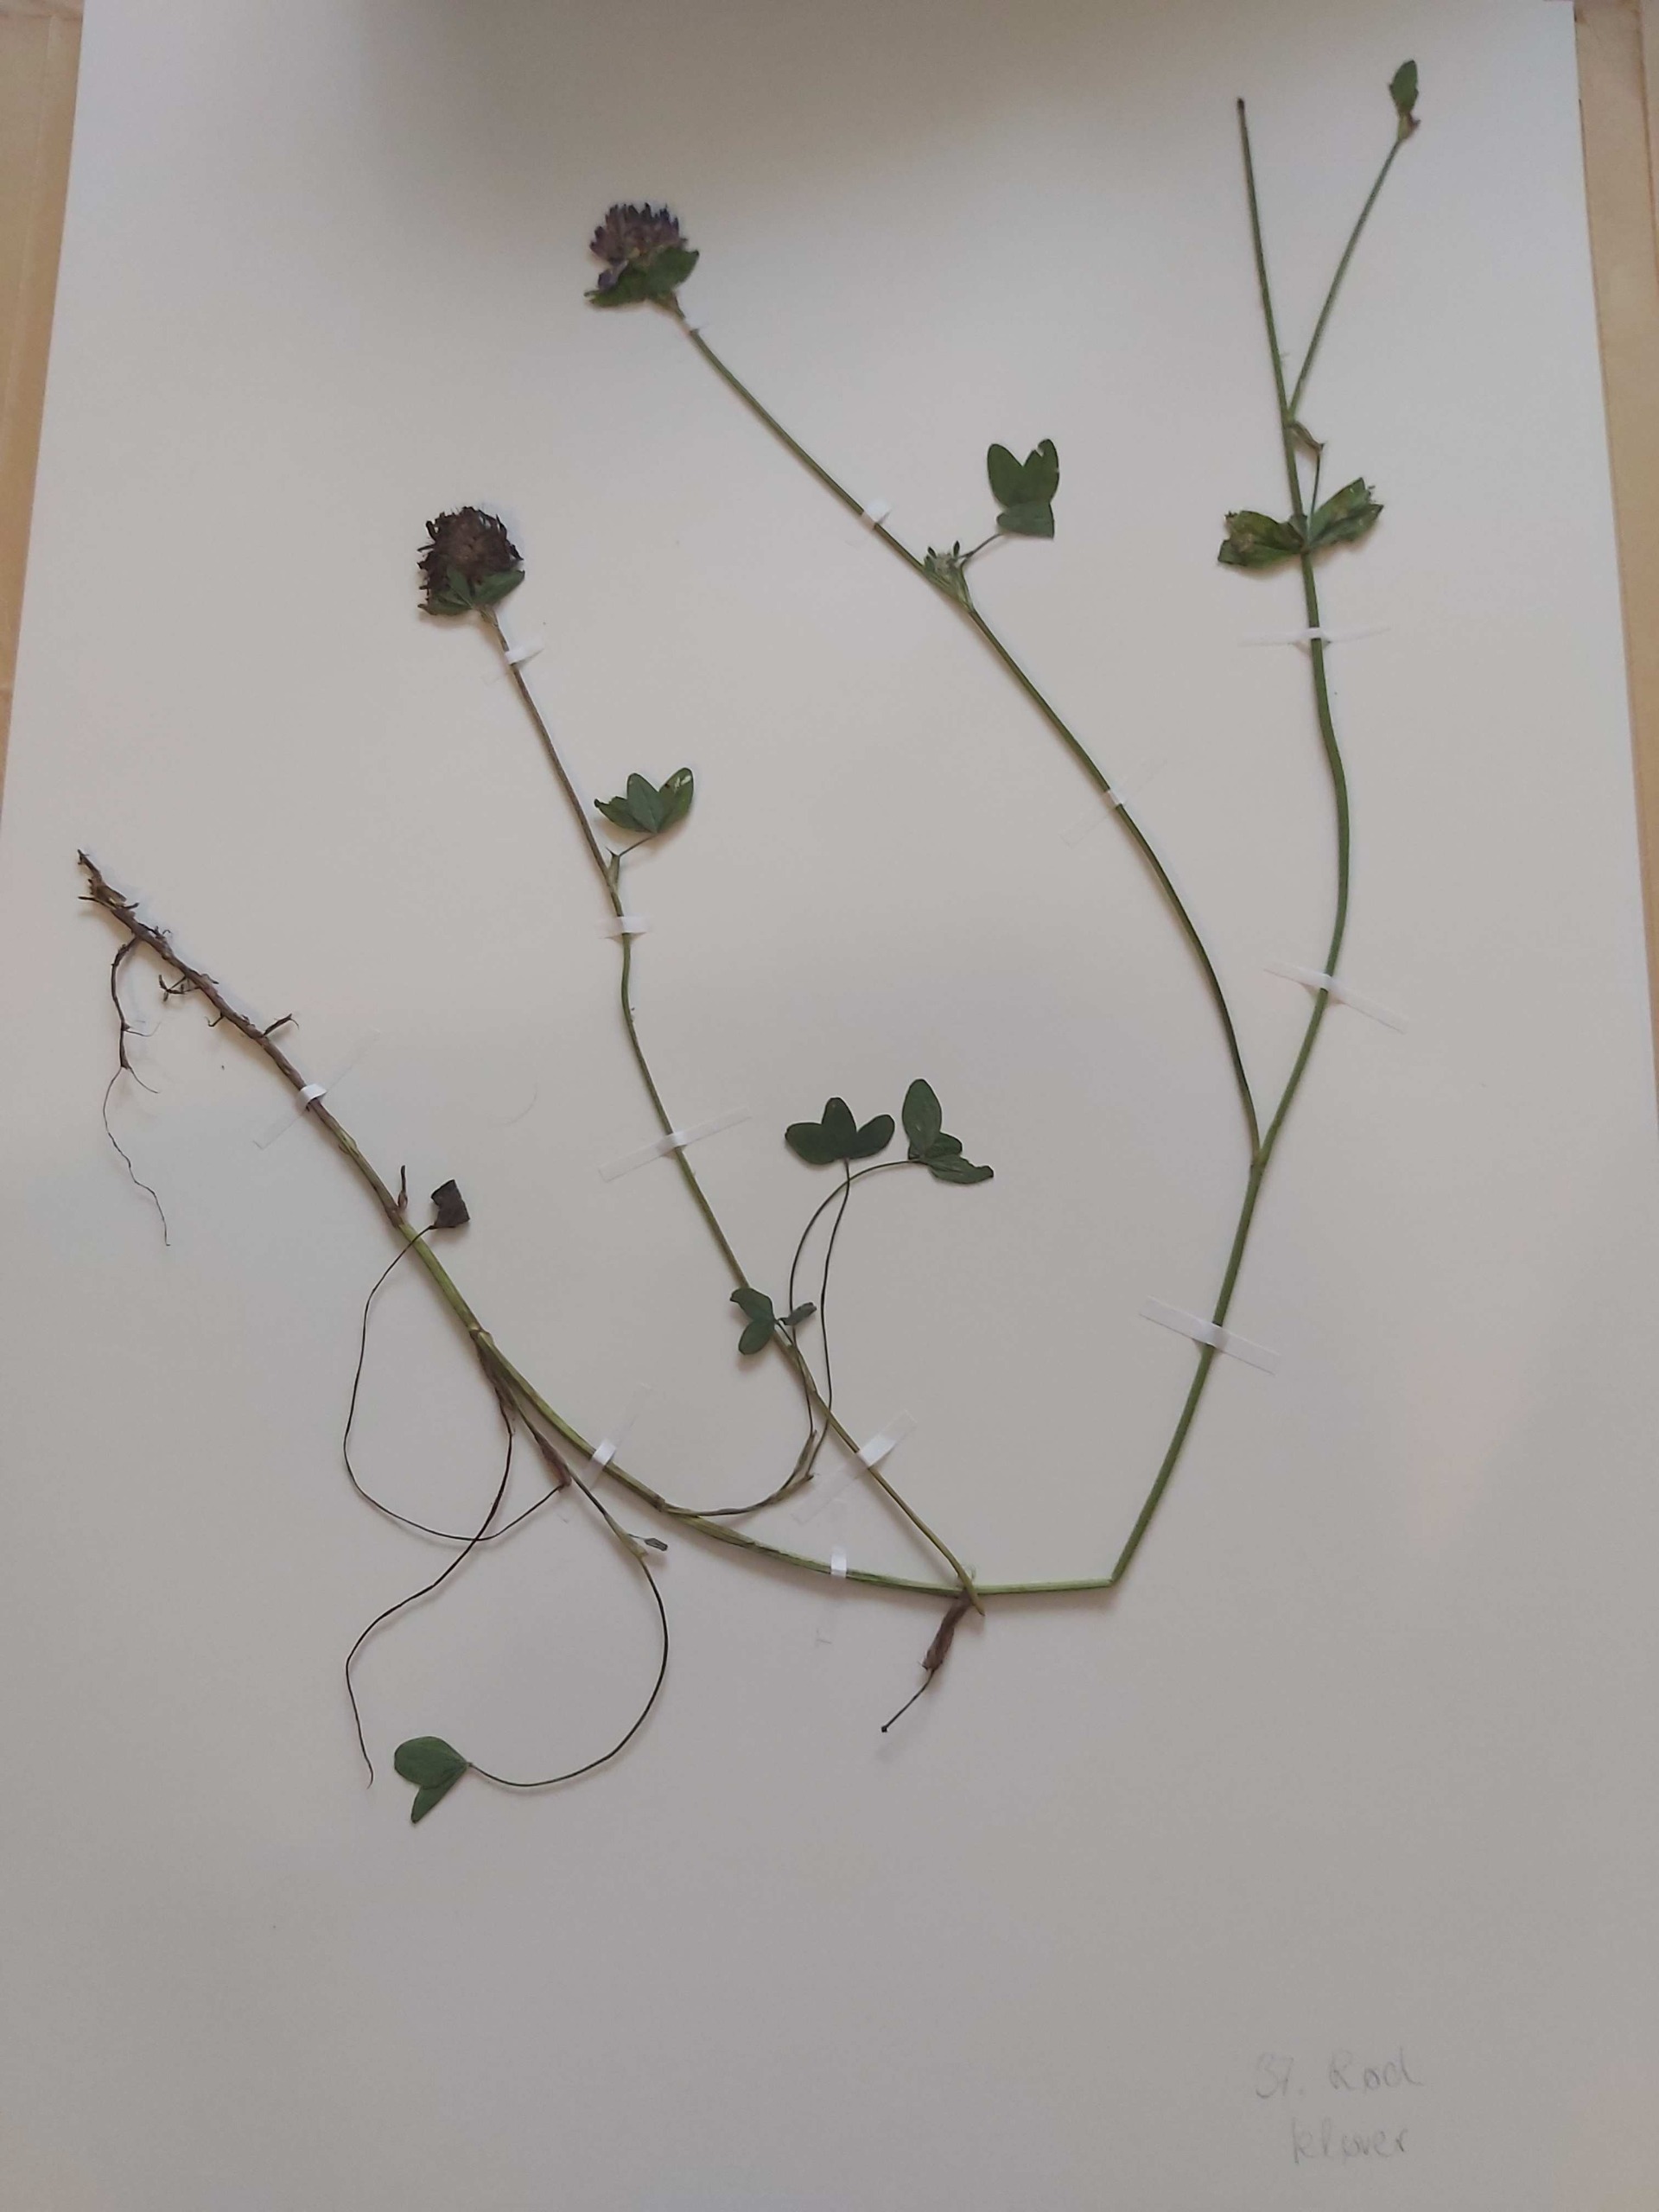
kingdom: Plantae
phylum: Tracheophyta
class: Magnoliopsida
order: Fabales
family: Fabaceae
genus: Trifolium
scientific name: Trifolium pratense
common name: Rød-kløver
